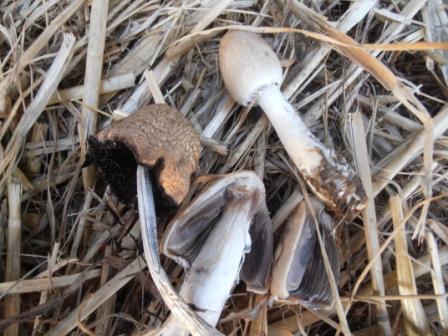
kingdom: Fungi
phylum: Basidiomycota
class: Agaricomycetes
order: Agaricales
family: Bolbitiaceae
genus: Panaeolus
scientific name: Panaeolus semiovatus
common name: ring-glanshat
